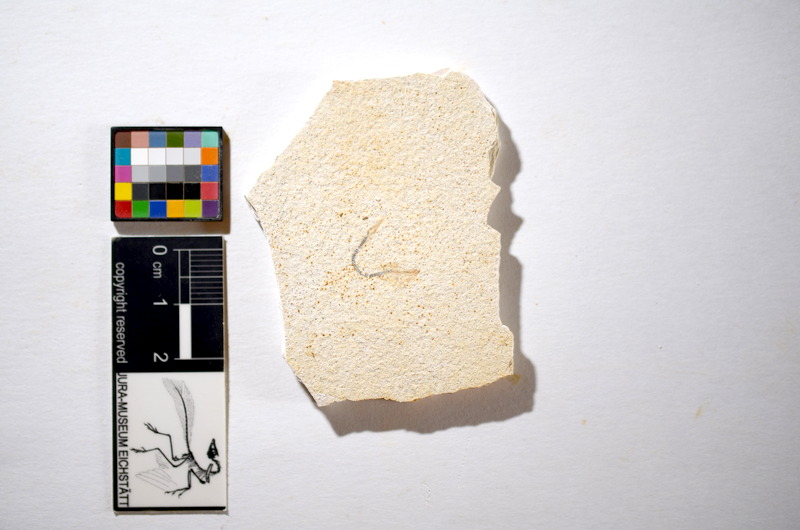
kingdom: Animalia
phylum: Chordata
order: Salmoniformes
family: Orthogonikleithridae
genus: Orthogonikleithrus
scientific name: Orthogonikleithrus hoelli
